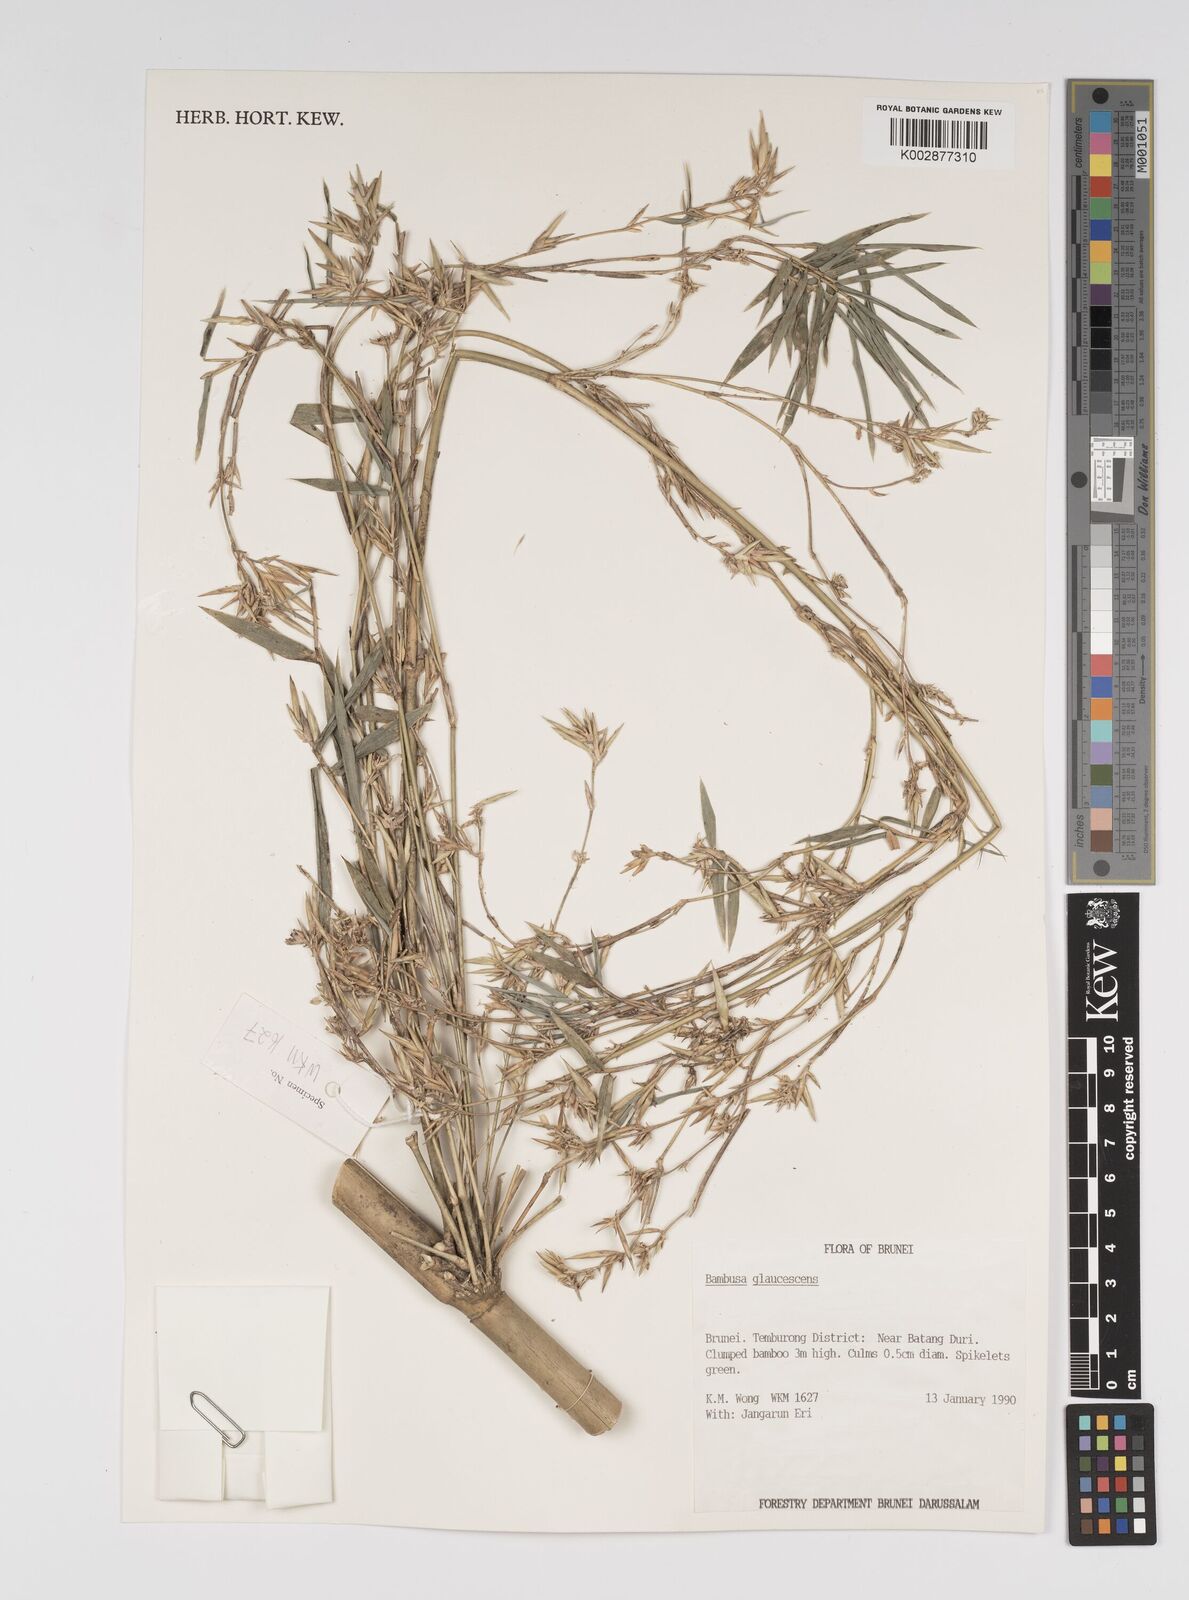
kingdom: Plantae
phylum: Tracheophyta
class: Liliopsida
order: Poales
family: Poaceae
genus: Bambusa
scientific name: Bambusa multiplex
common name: Hedge bamboo
